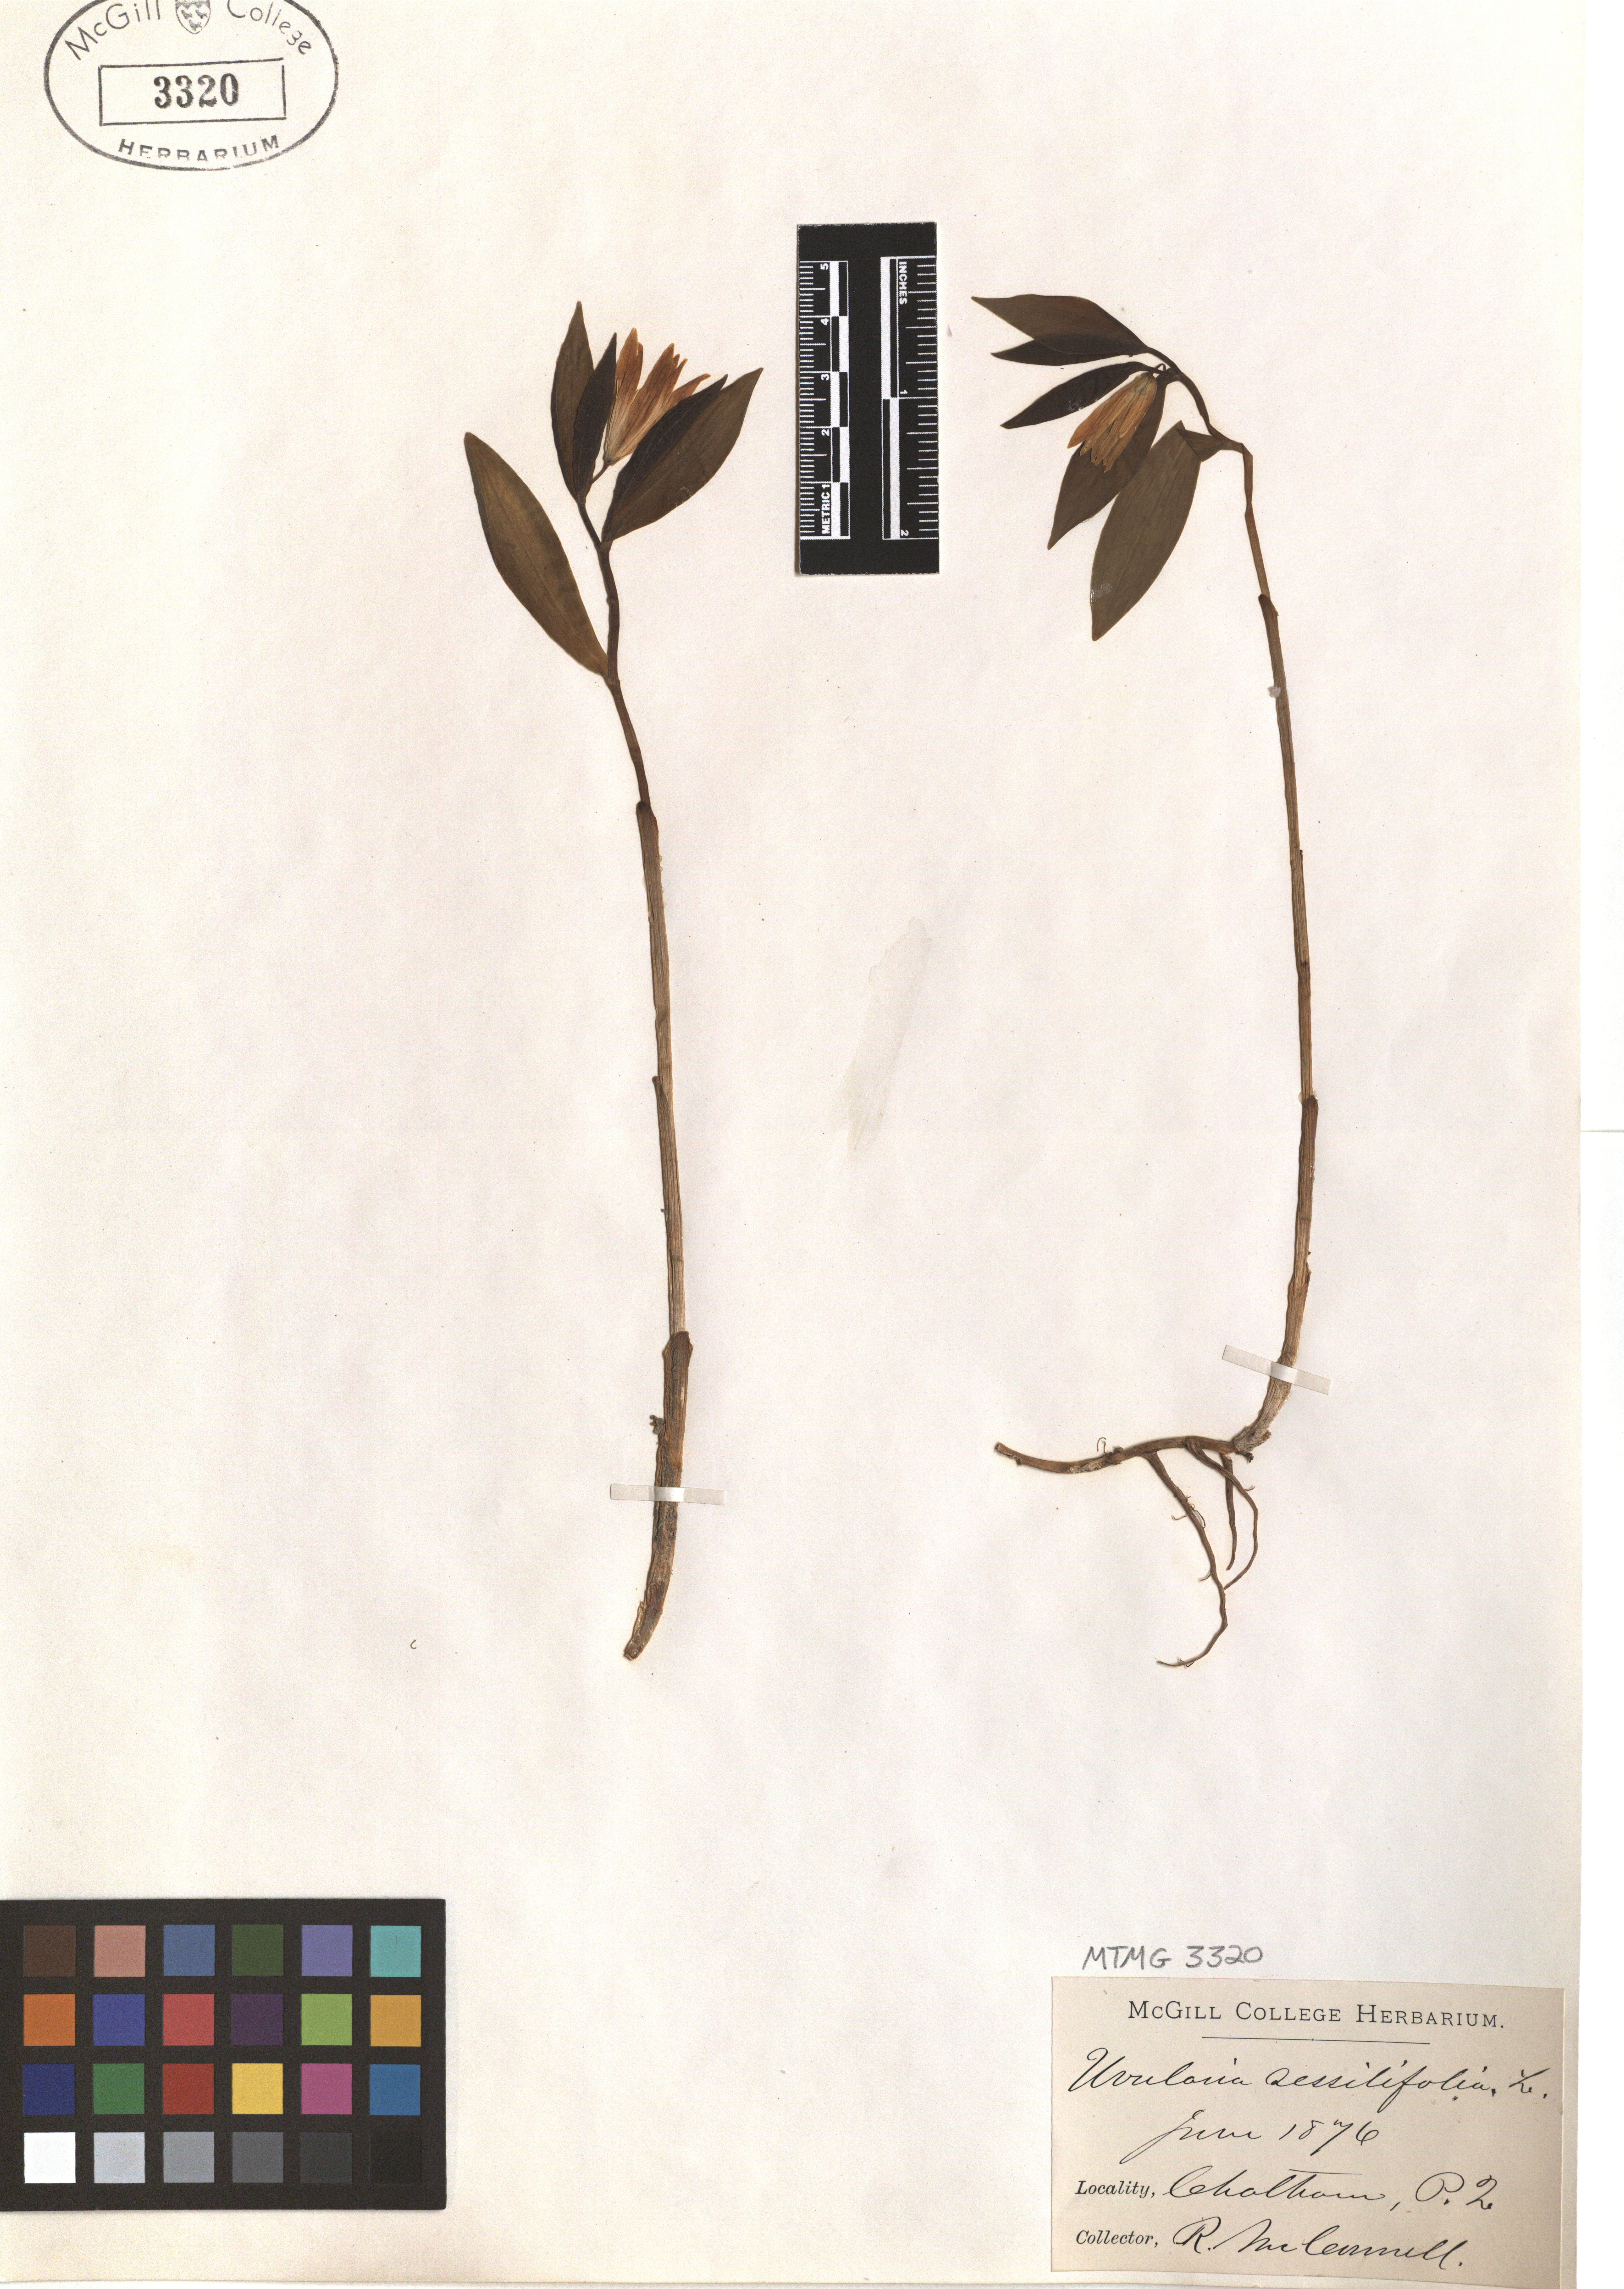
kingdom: Plantae
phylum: Tracheophyta
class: Liliopsida
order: Liliales
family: Colchicaceae
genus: Uvularia
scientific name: Uvularia sessilifolia
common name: Straw-lily
